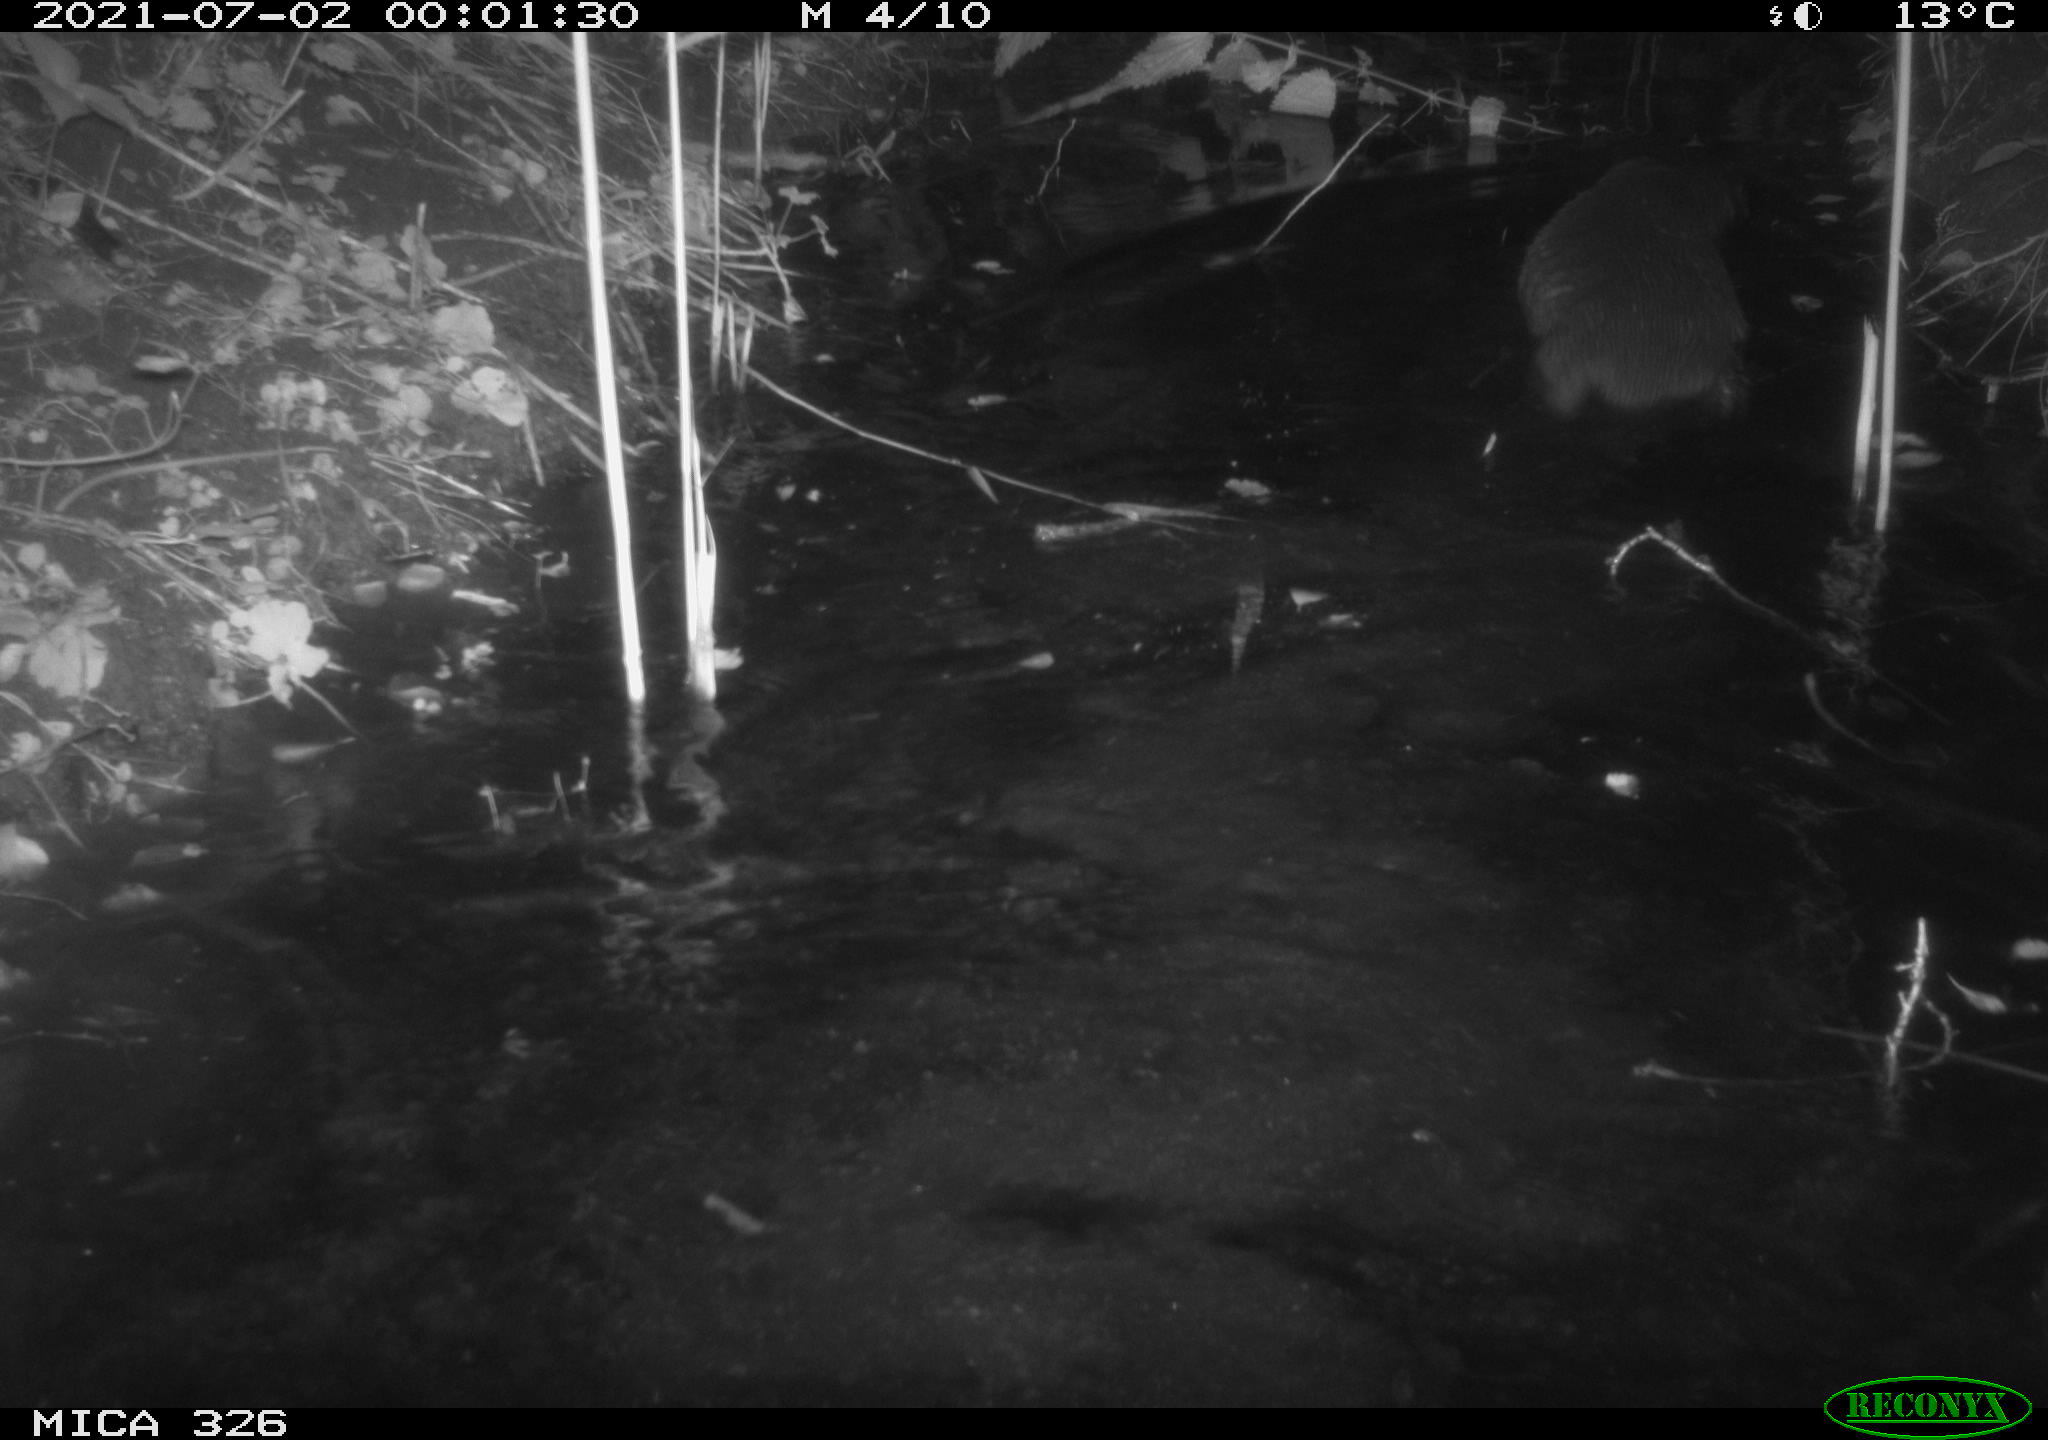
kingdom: Animalia
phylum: Chordata
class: Mammalia
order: Carnivora
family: Mustelidae
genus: Lutra
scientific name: Lutra lutra
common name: European otter
